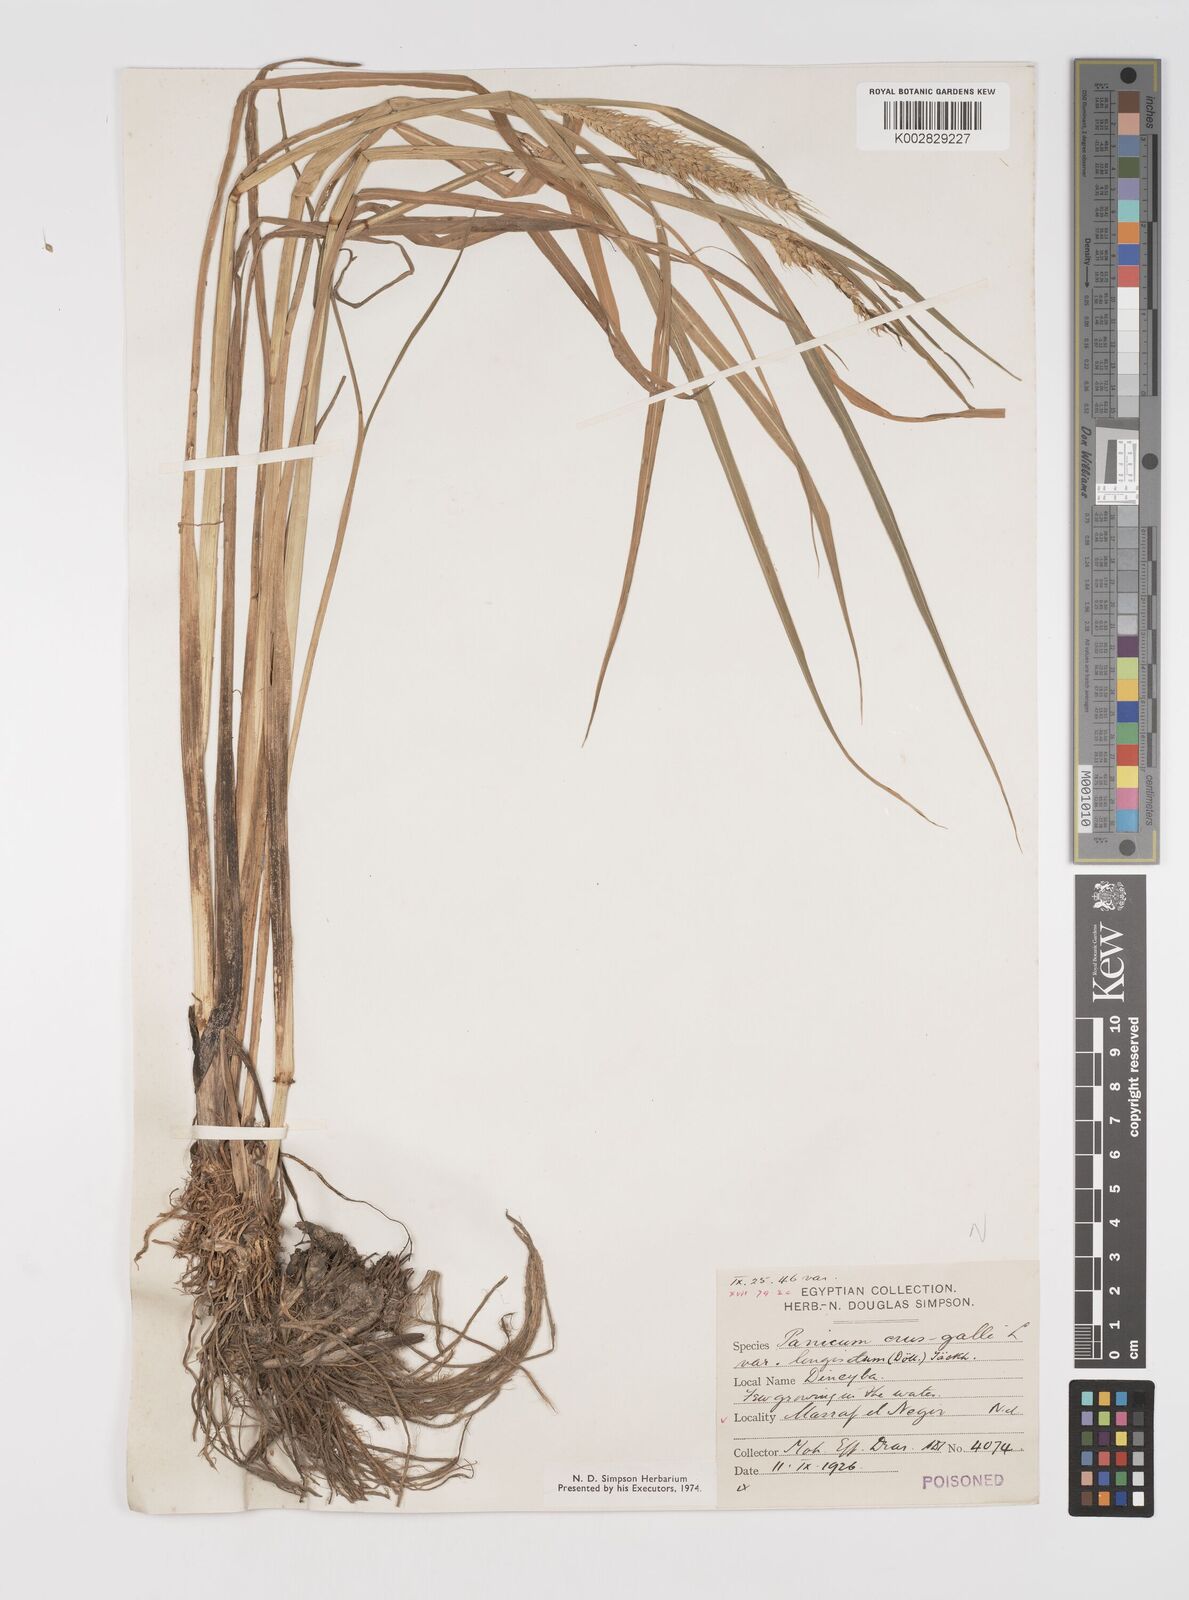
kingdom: Plantae
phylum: Tracheophyta
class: Liliopsida
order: Poales
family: Poaceae
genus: Echinochloa
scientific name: Echinochloa crus-galli
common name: Cockspur
